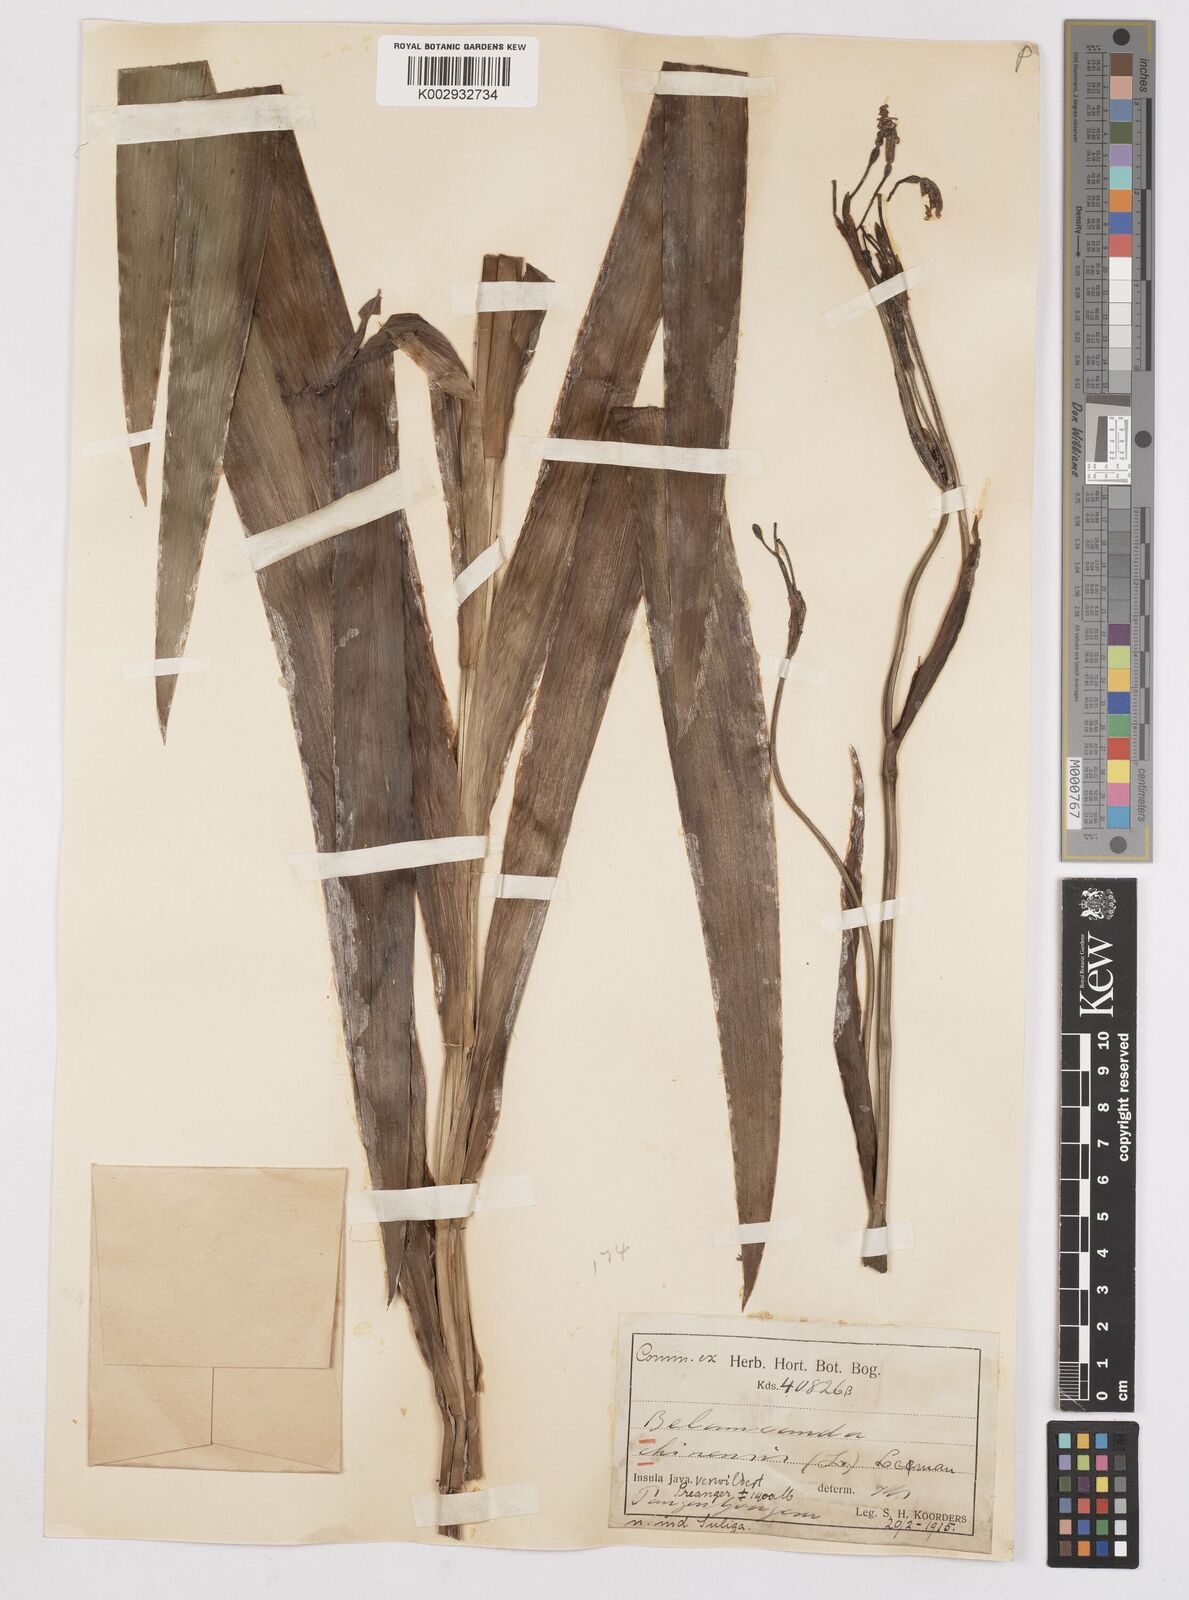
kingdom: Plantae
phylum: Tracheophyta
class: Liliopsida
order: Asparagales
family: Iridaceae
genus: Iris
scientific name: Iris
